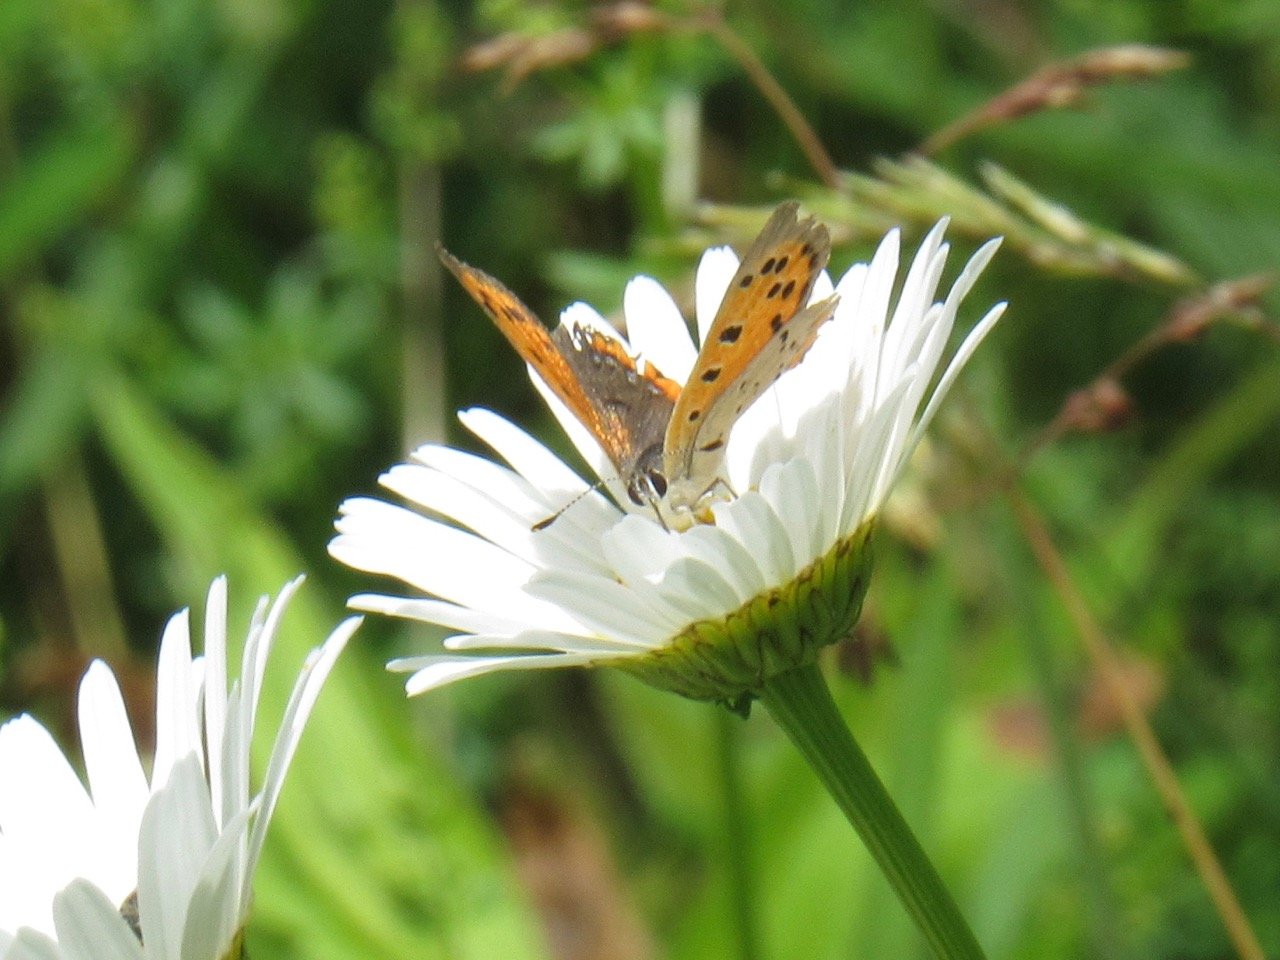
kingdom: Animalia
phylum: Arthropoda
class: Insecta
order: Lepidoptera
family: Lycaenidae
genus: Lycaena
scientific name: Lycaena phlaeas
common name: American Copper
